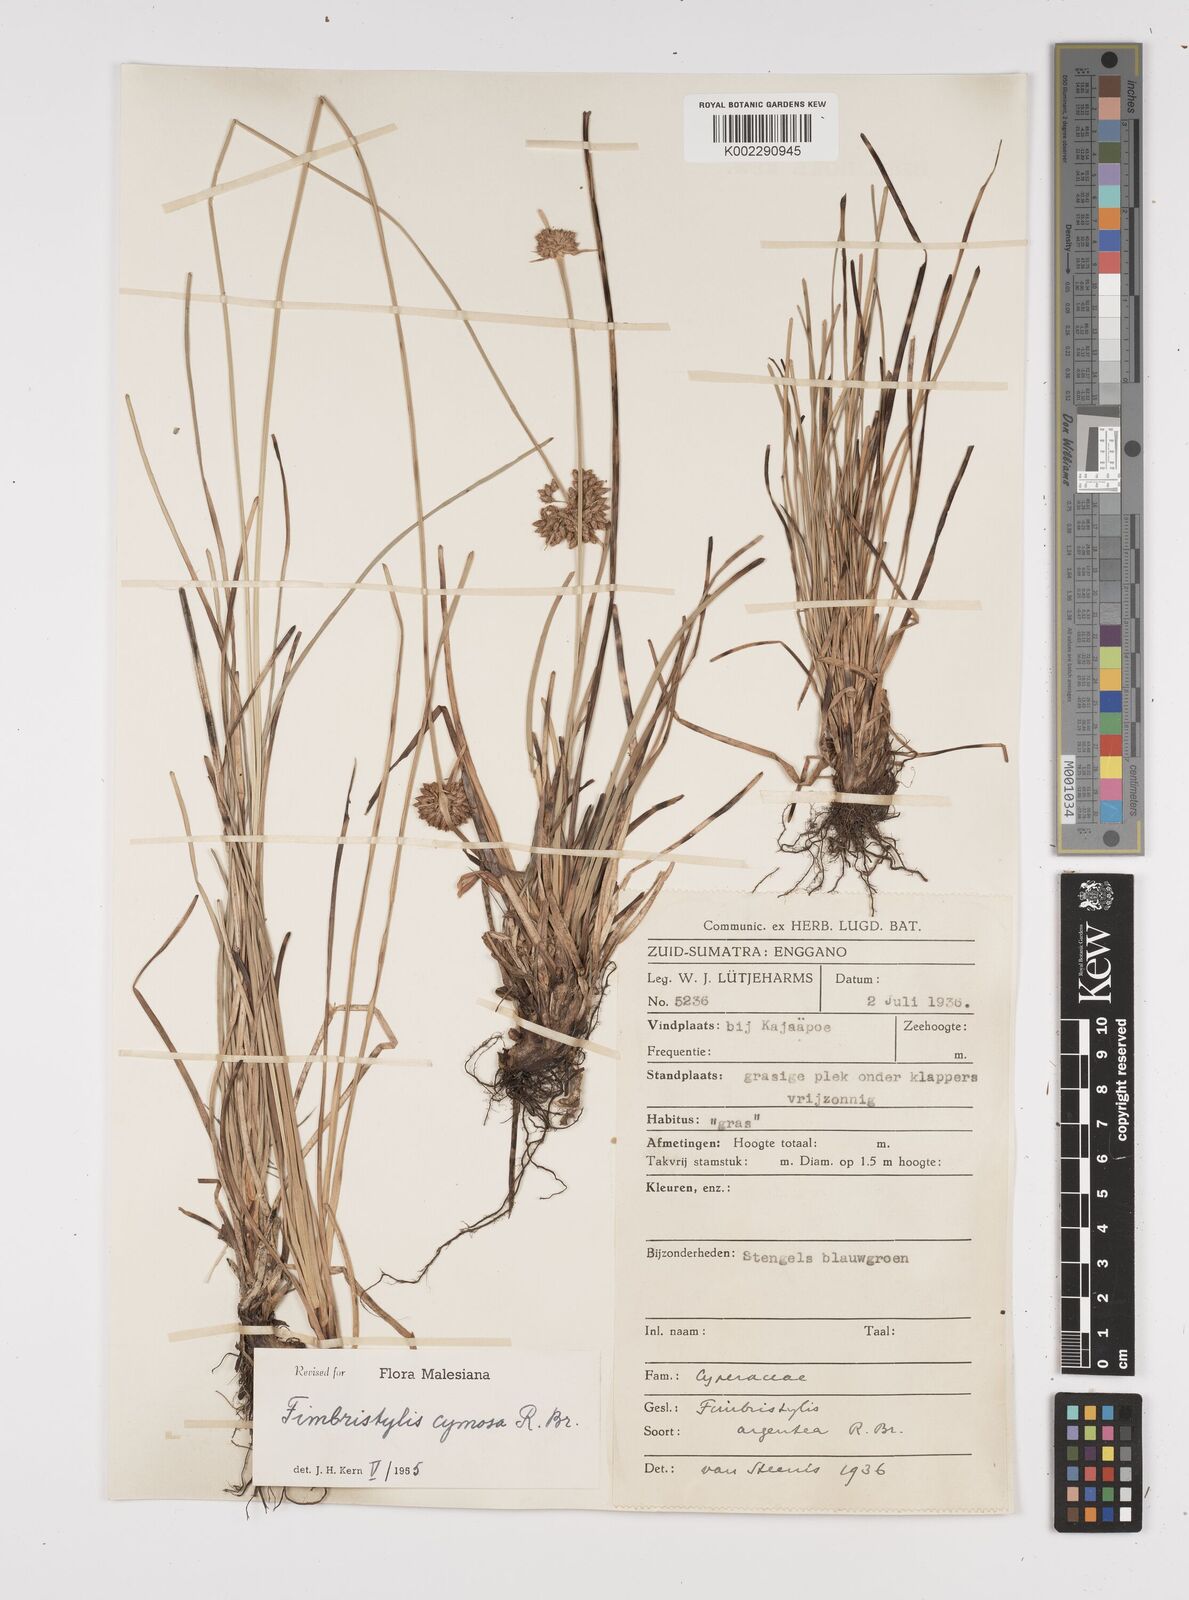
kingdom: Plantae
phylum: Tracheophyta
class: Liliopsida
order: Poales
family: Cyperaceae
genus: Fimbristylis
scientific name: Fimbristylis cymosa
